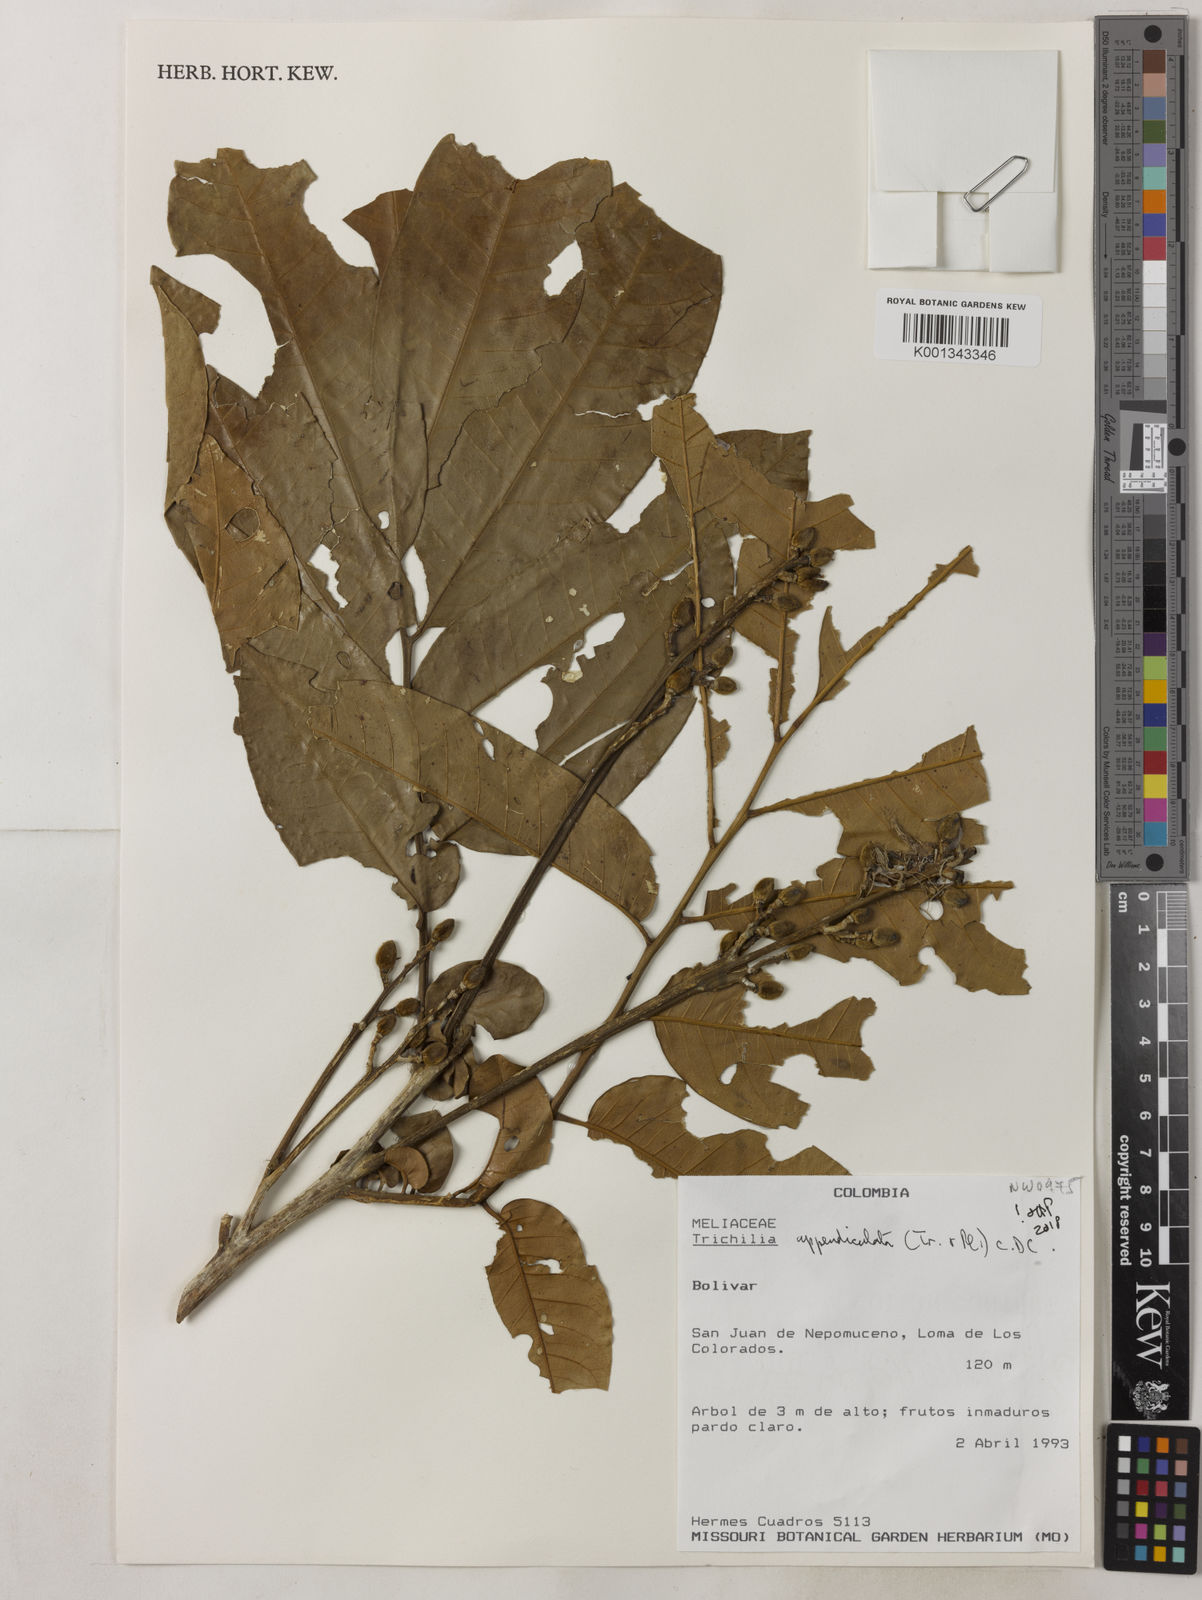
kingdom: Plantae
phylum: Tracheophyta
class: Magnoliopsida
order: Sapindales
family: Meliaceae
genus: Trichilia
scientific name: Trichilia appendiculata
